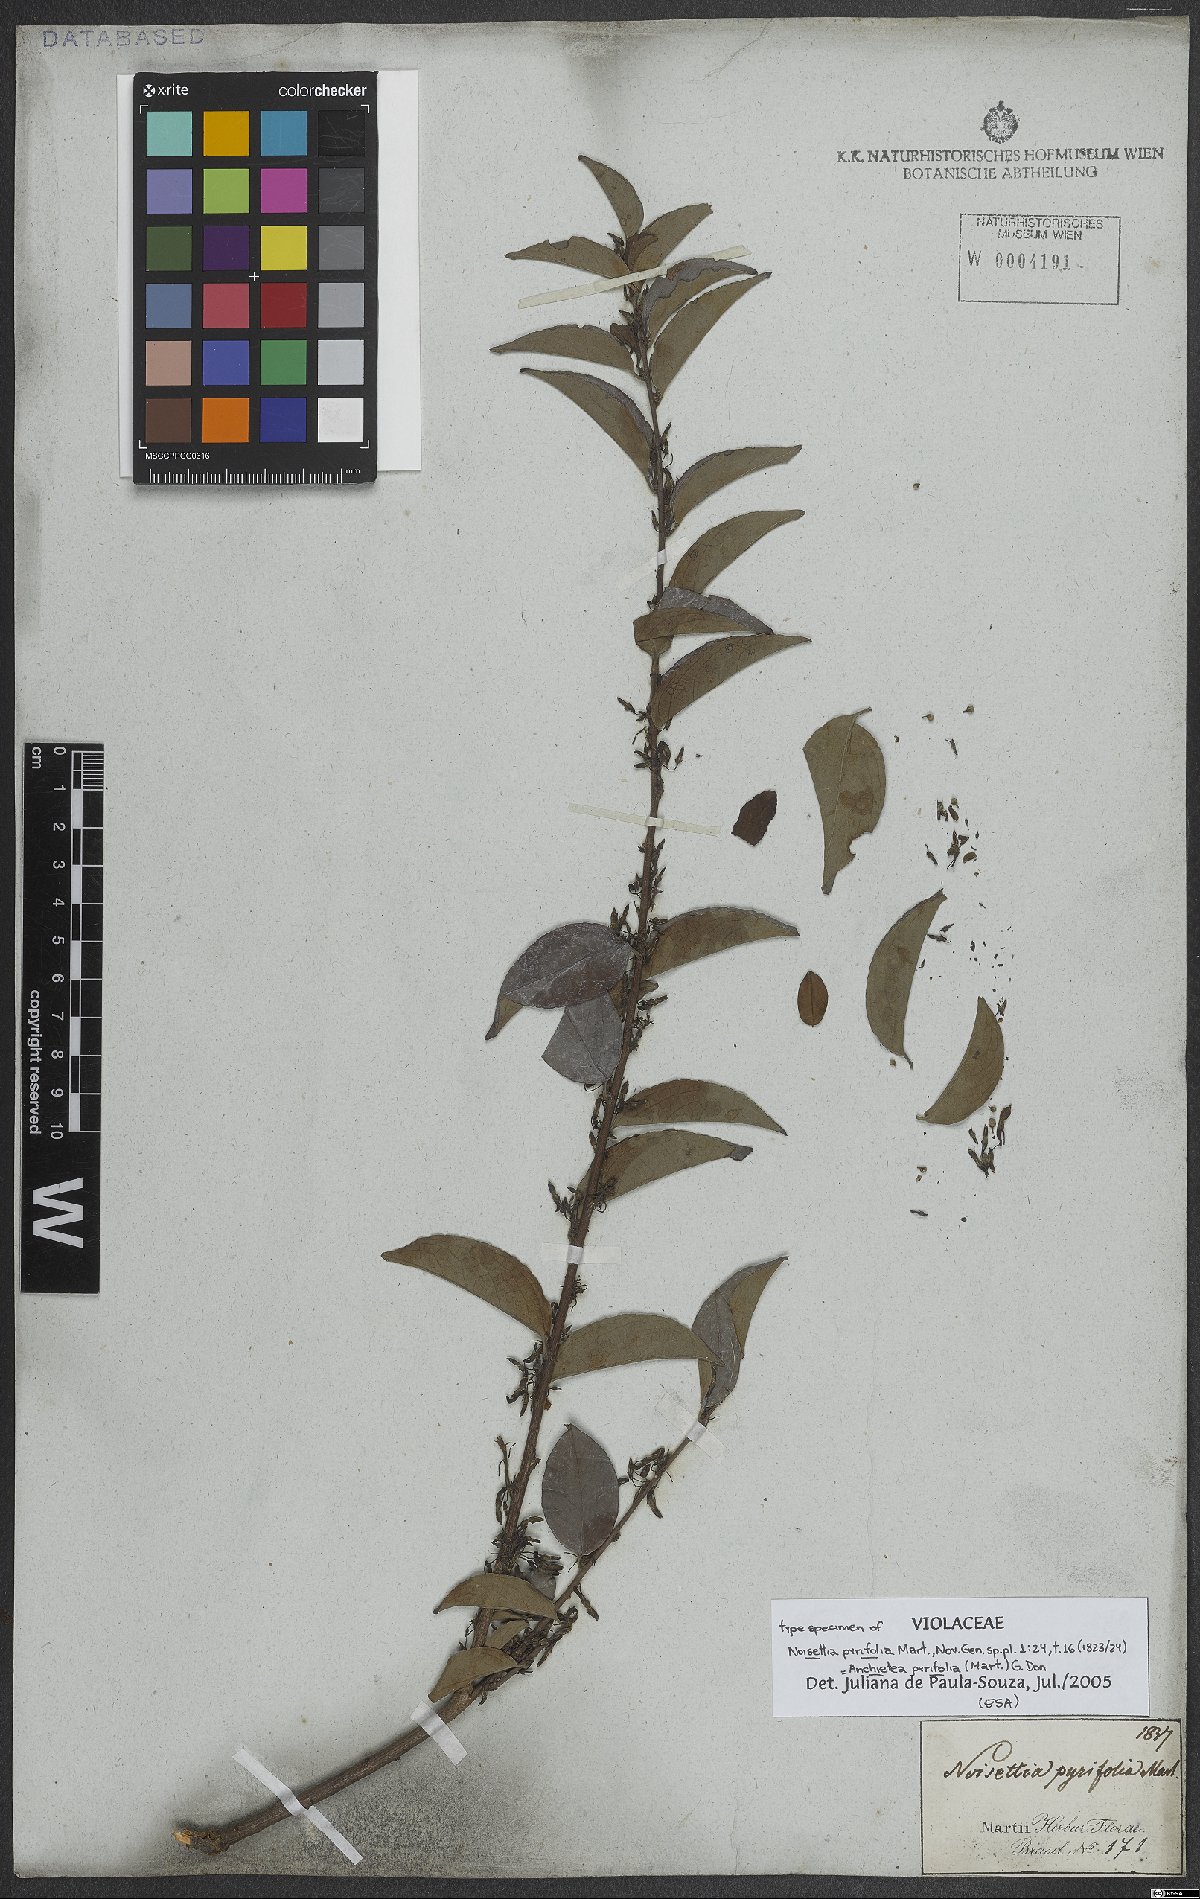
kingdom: Plantae
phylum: Tracheophyta
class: Magnoliopsida
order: Malpighiales
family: Violaceae
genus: Anchietea
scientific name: Anchietea pyrifolia
